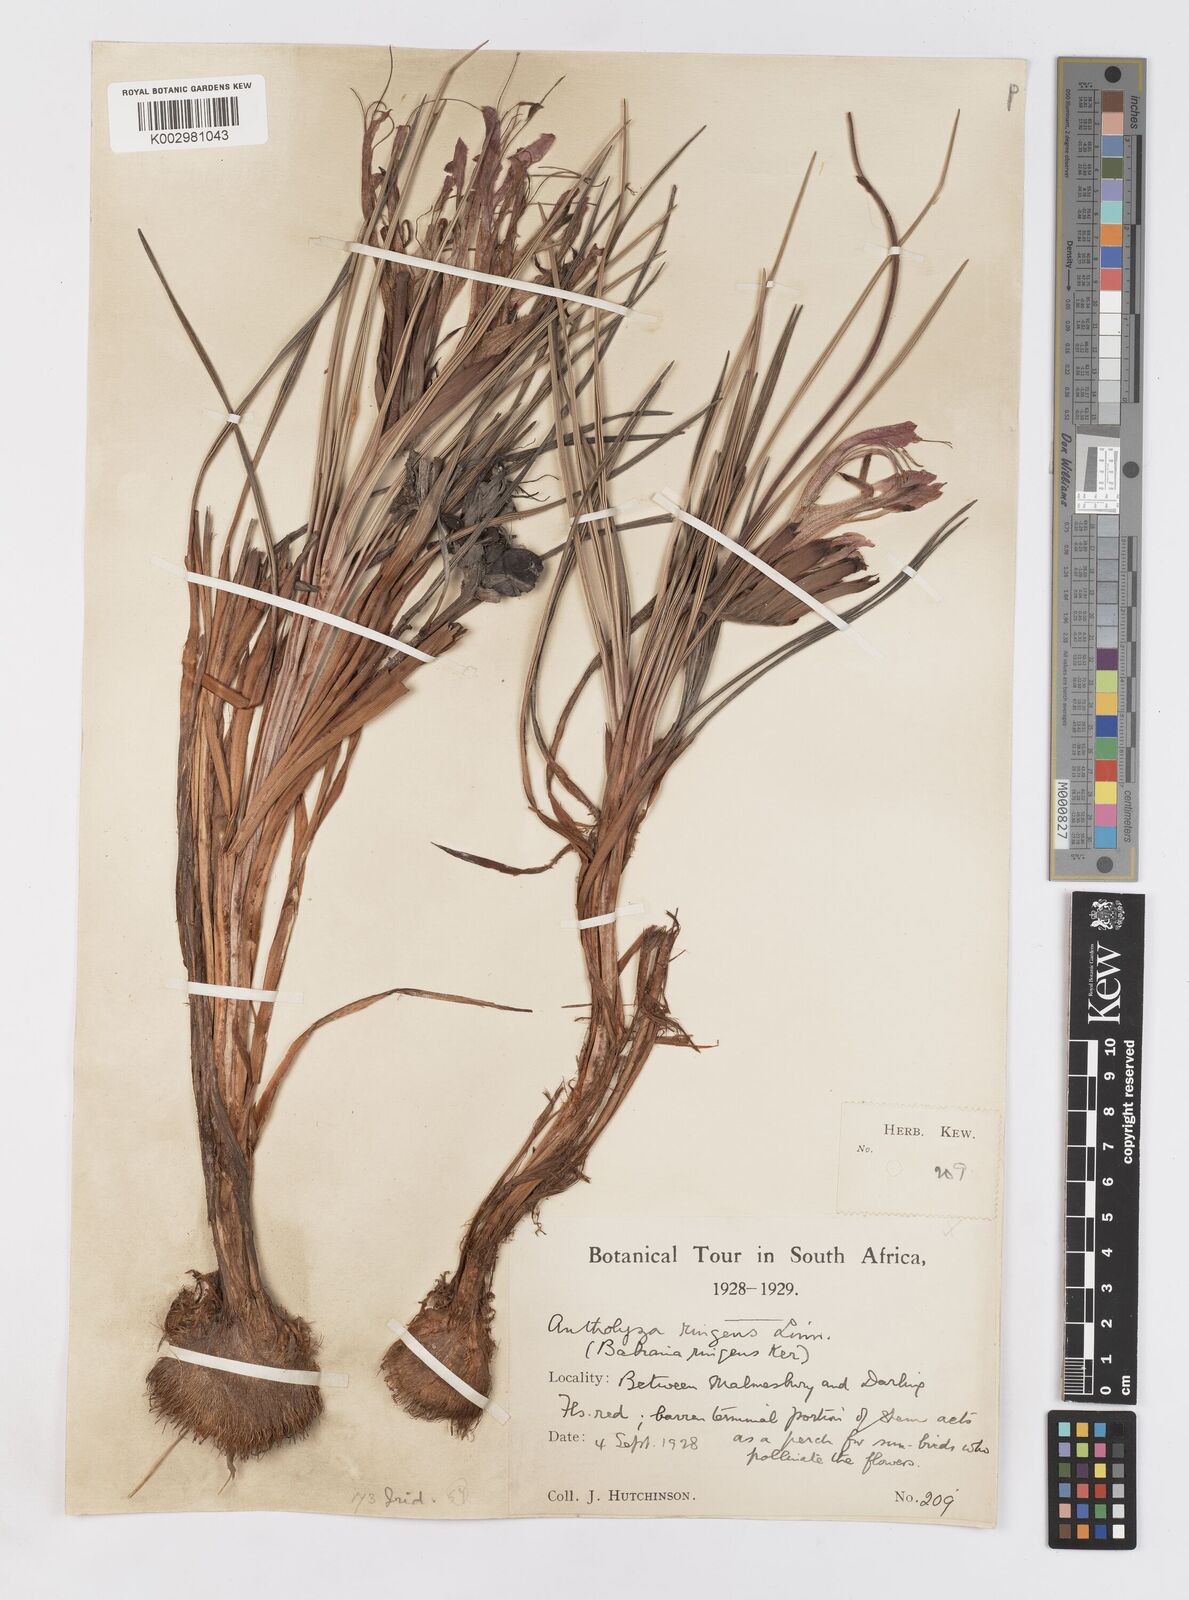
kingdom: Plantae
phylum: Tracheophyta
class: Liliopsida
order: Asparagales
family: Iridaceae
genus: Babiana
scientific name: Babiana ringens
